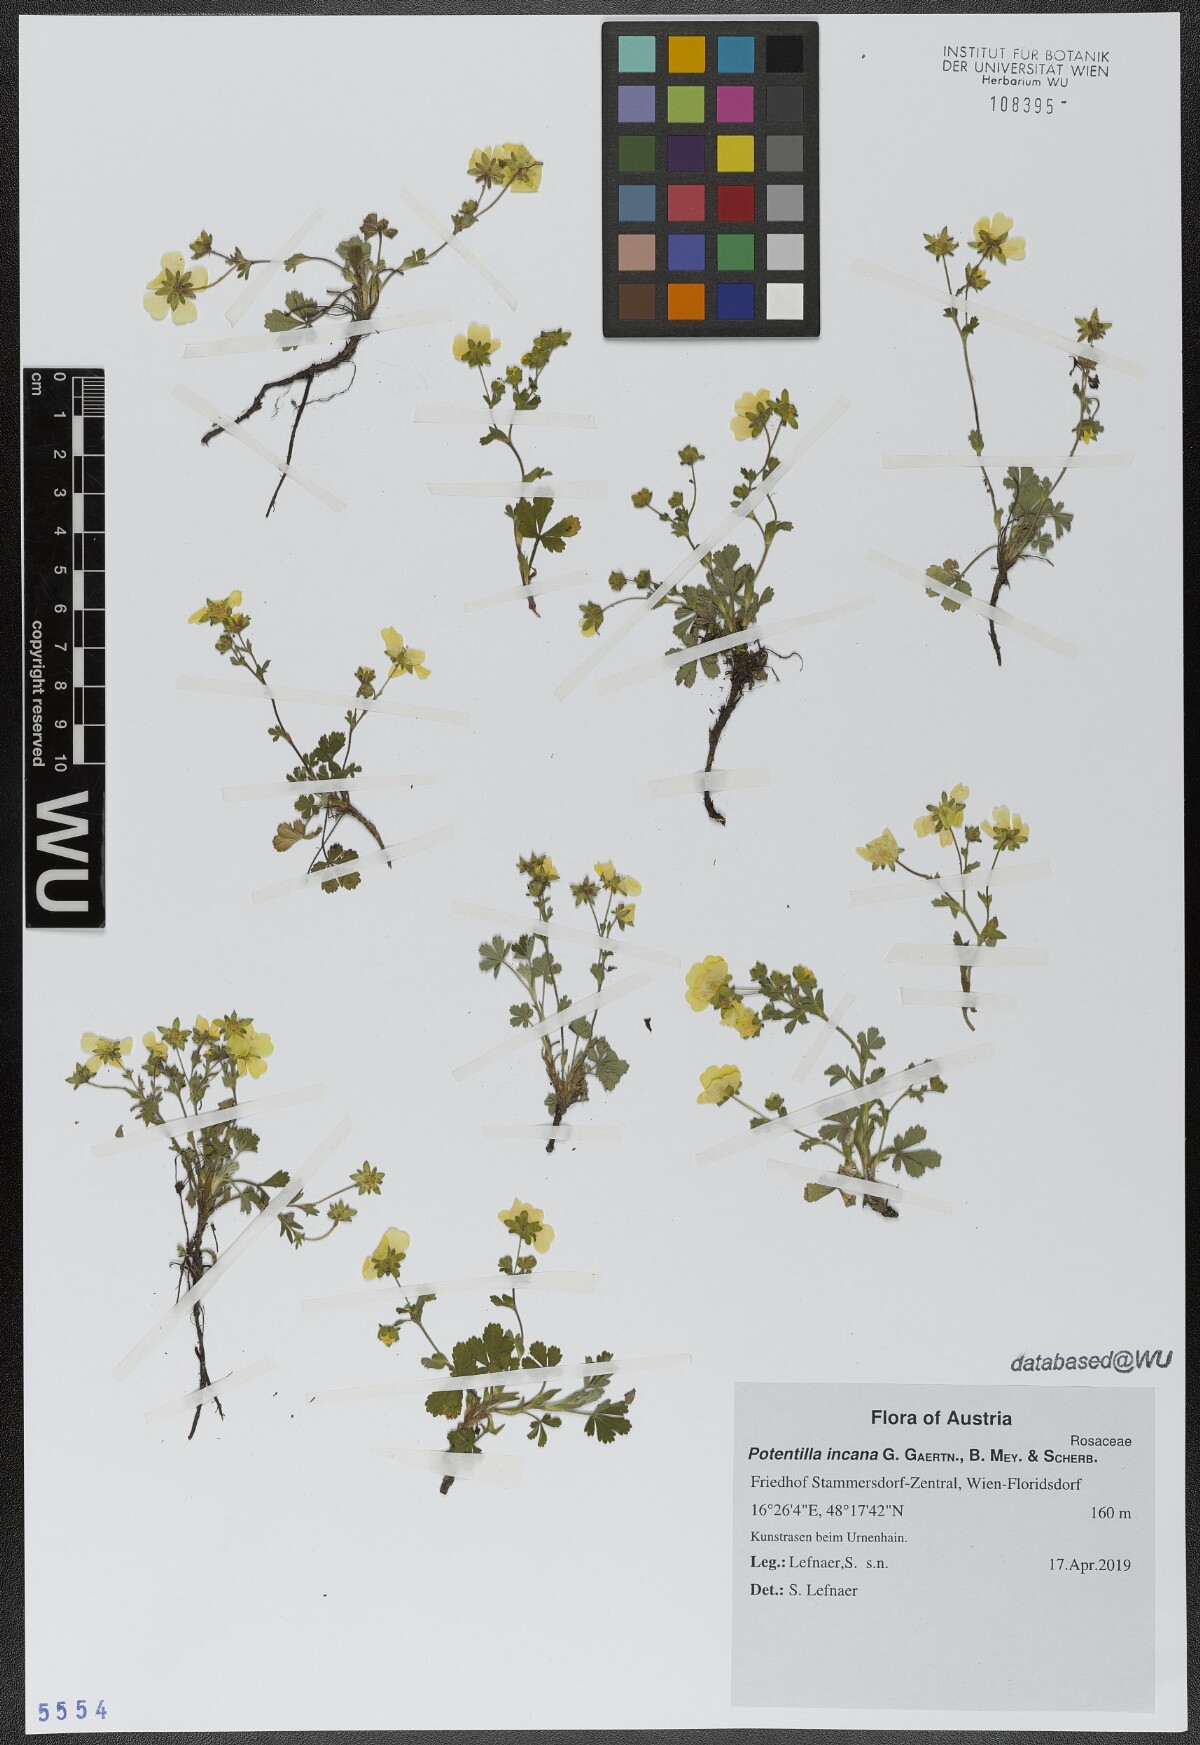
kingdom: Plantae
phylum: Tracheophyta
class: Magnoliopsida
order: Rosales
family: Rosaceae
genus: Potentilla
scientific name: Potentilla cinerea
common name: Ashy cinquefoil
